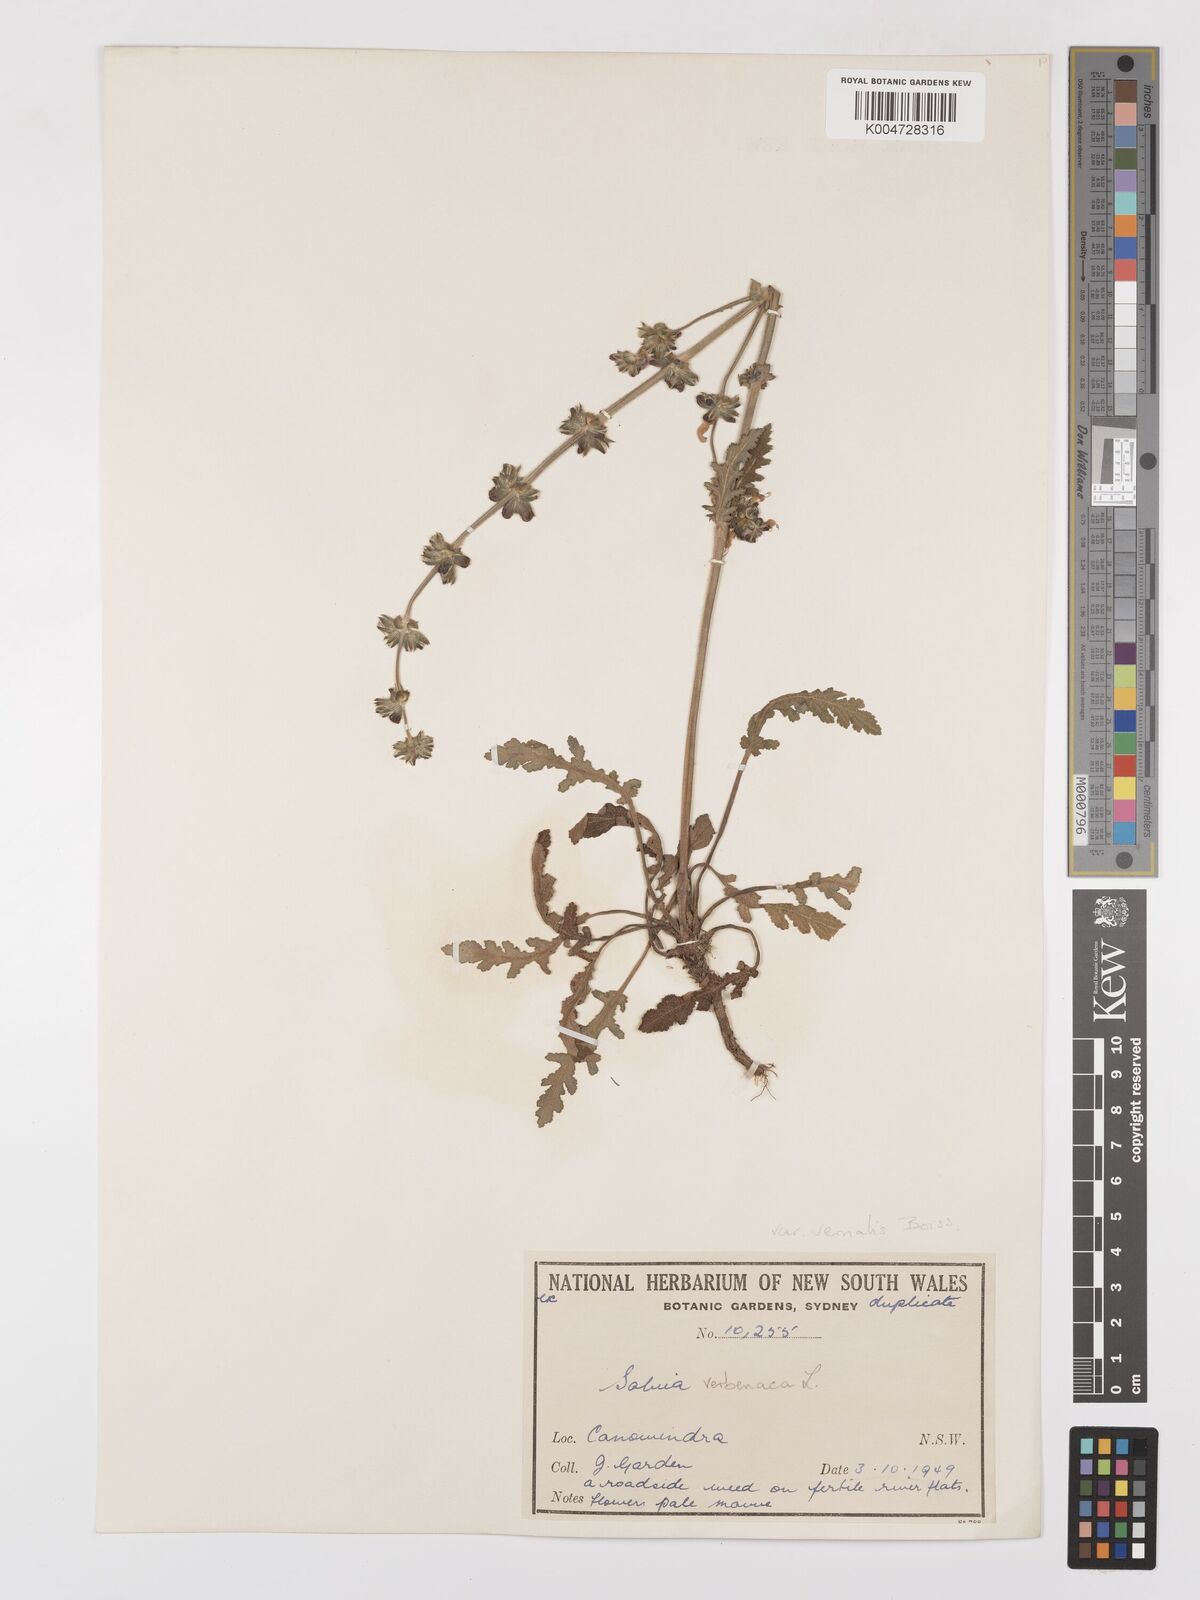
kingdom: Plantae
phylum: Tracheophyta
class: Magnoliopsida
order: Lamiales
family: Lamiaceae
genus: Salvia
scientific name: Salvia verbenaca
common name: Wild clary
